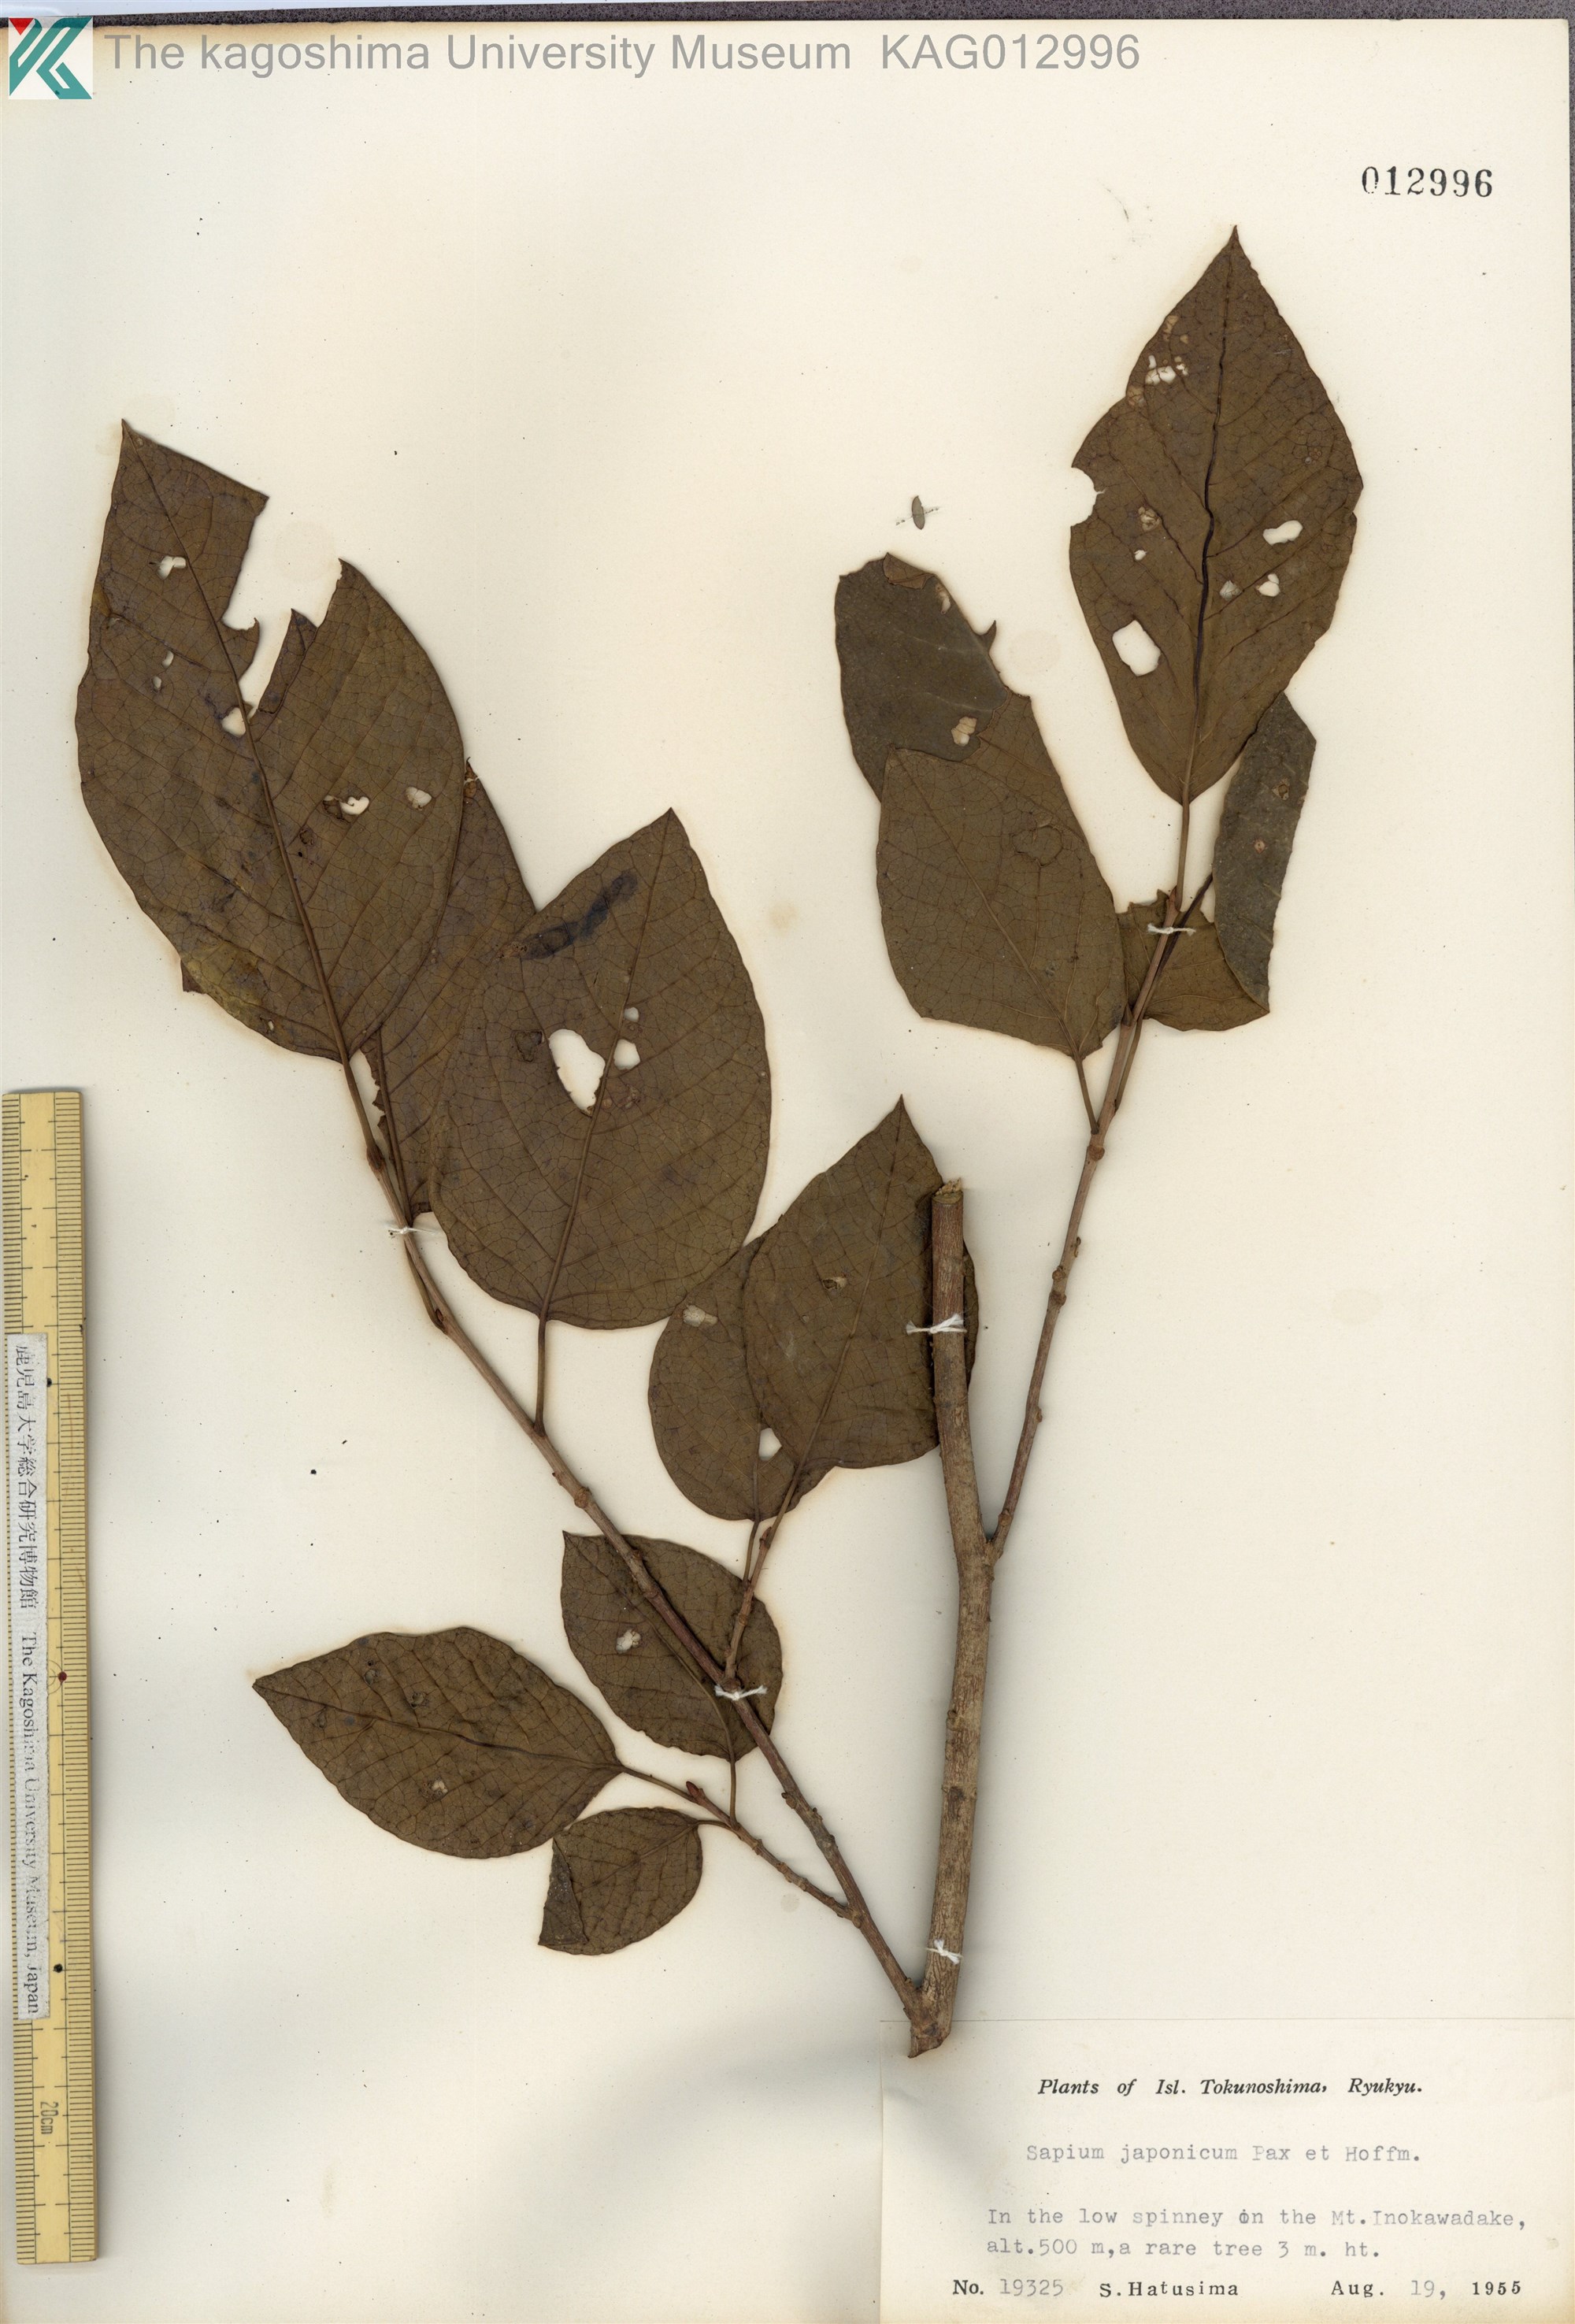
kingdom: Plantae
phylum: Tracheophyta
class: Magnoliopsida
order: Malpighiales
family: Euphorbiaceae
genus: Neoshirakia
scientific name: Neoshirakia japonica
